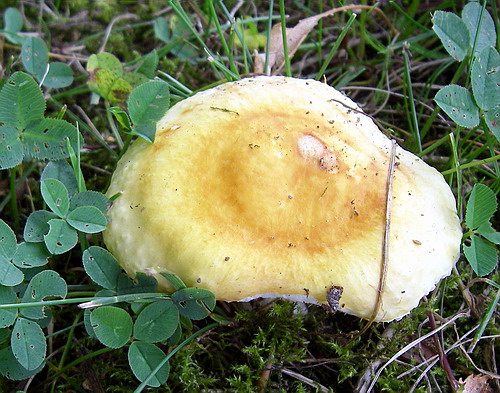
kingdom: Fungi
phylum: Basidiomycota
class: Agaricomycetes
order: Russulales
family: Russulaceae
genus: Russula
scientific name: Russula solaris
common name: sol-skørhat
